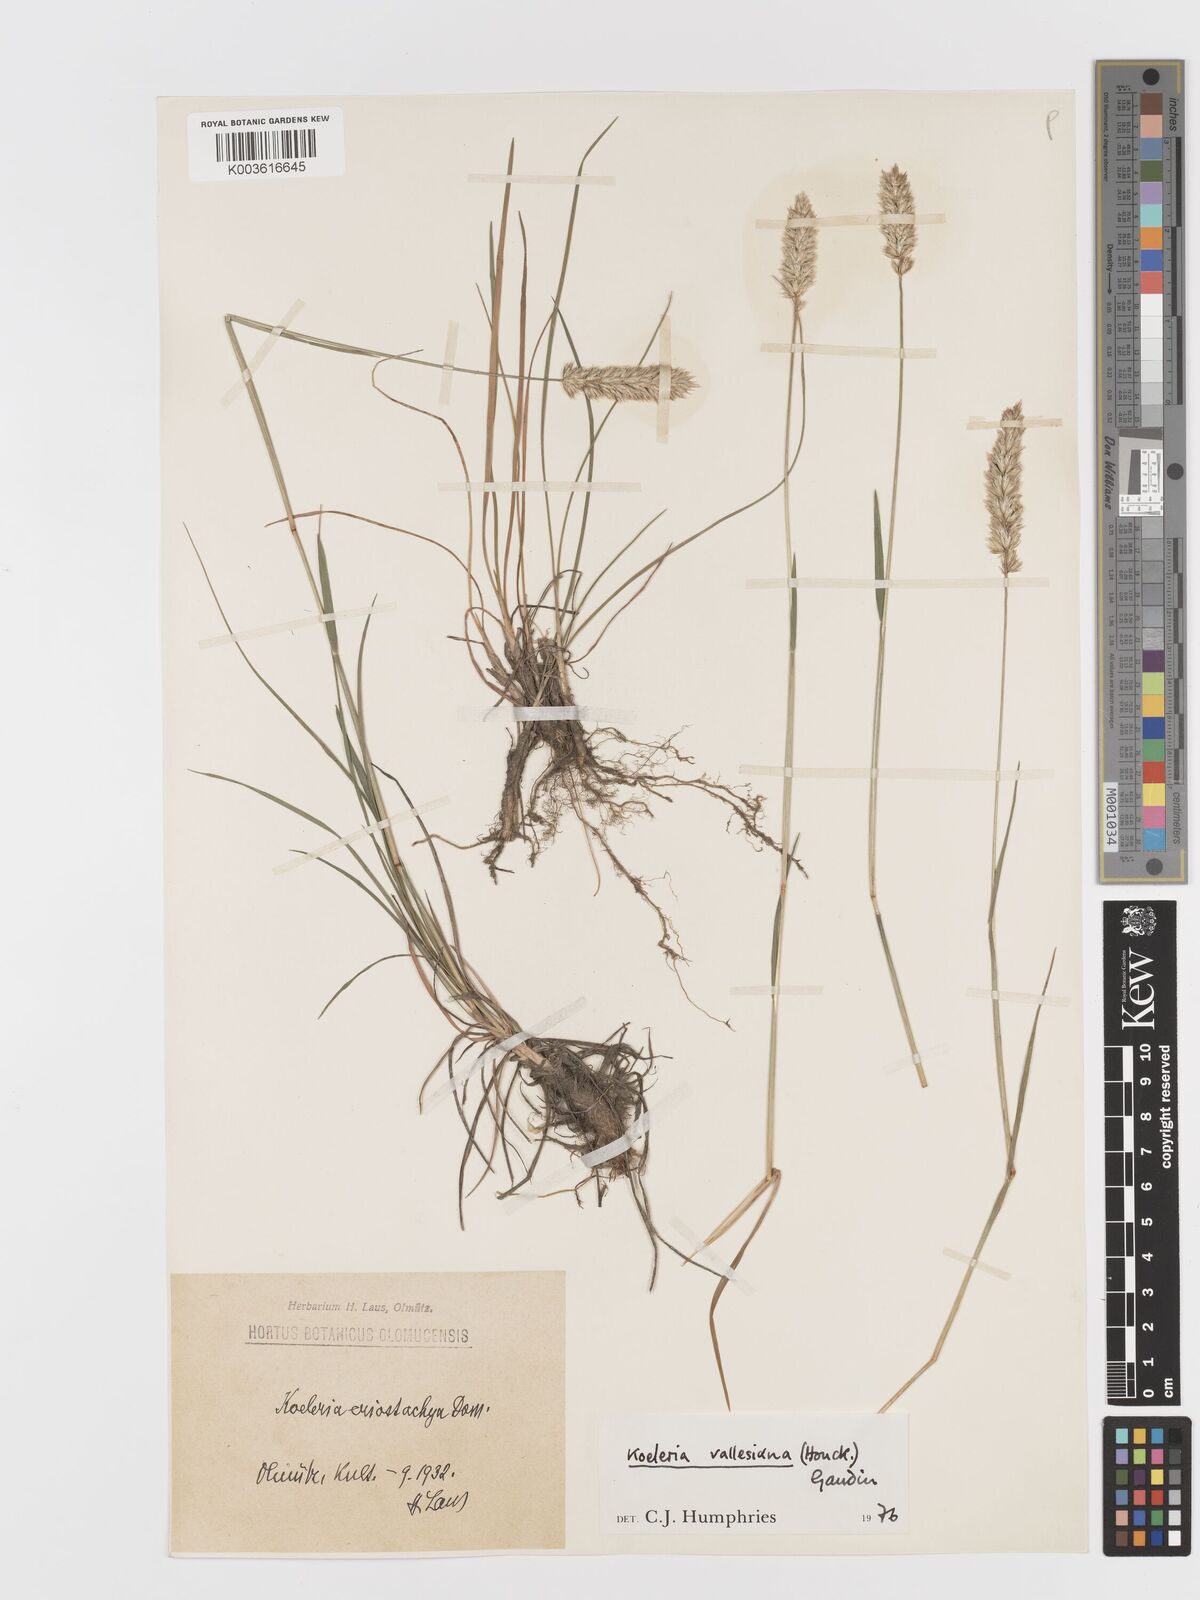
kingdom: Plantae
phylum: Tracheophyta
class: Liliopsida
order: Poales
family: Poaceae
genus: Koeleria
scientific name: Koeleria vallesiana
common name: Somerset hair-grass
